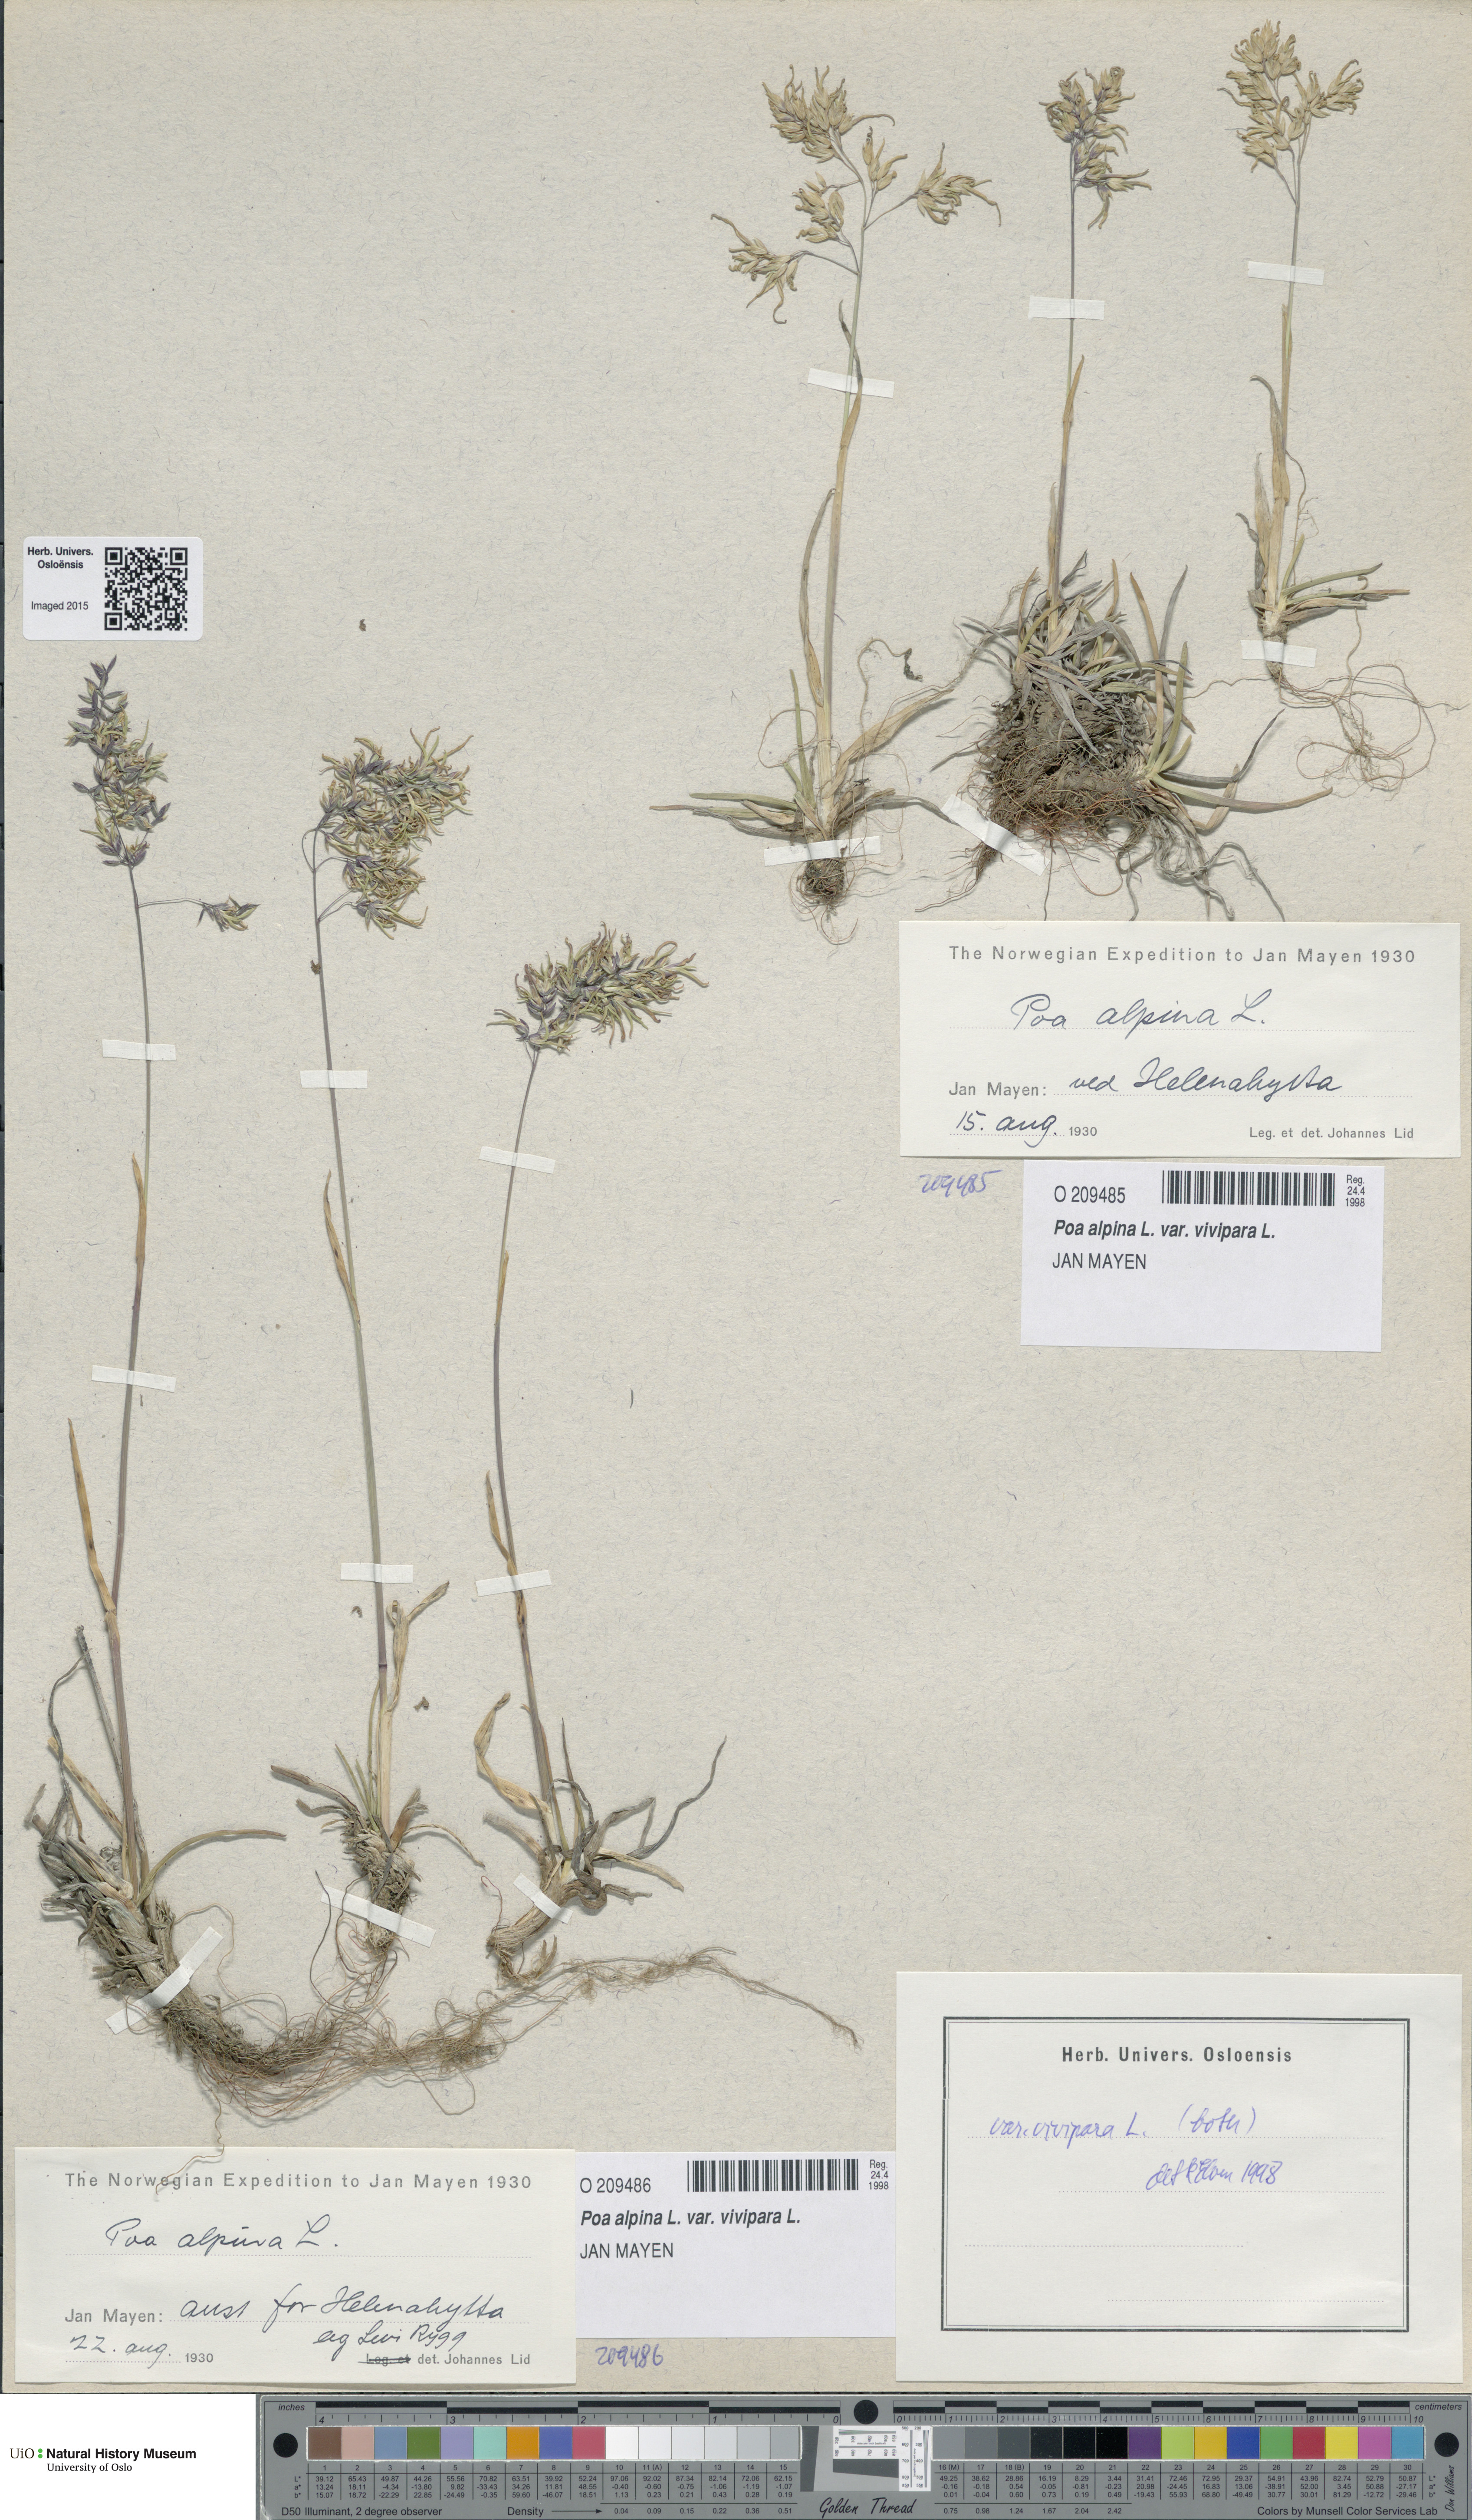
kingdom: Plantae
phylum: Tracheophyta
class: Liliopsida
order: Poales
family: Poaceae
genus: Poa
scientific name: Poa alpina
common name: Alpine bluegrass
